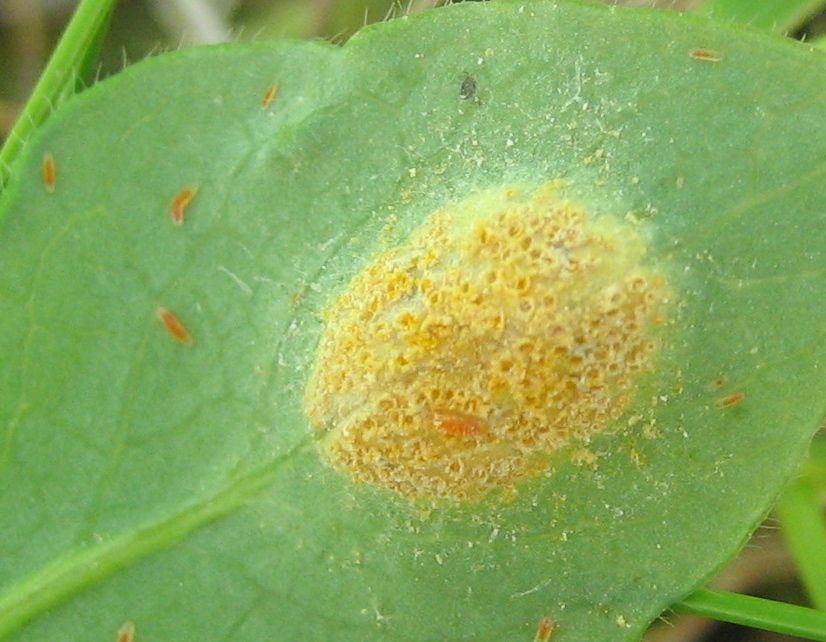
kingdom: Fungi
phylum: Basidiomycota
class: Pucciniomycetes
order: Pucciniales
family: Pucciniaceae
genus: Puccinia
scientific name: Puccinia festucae
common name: gedeblad-tvecellerust
